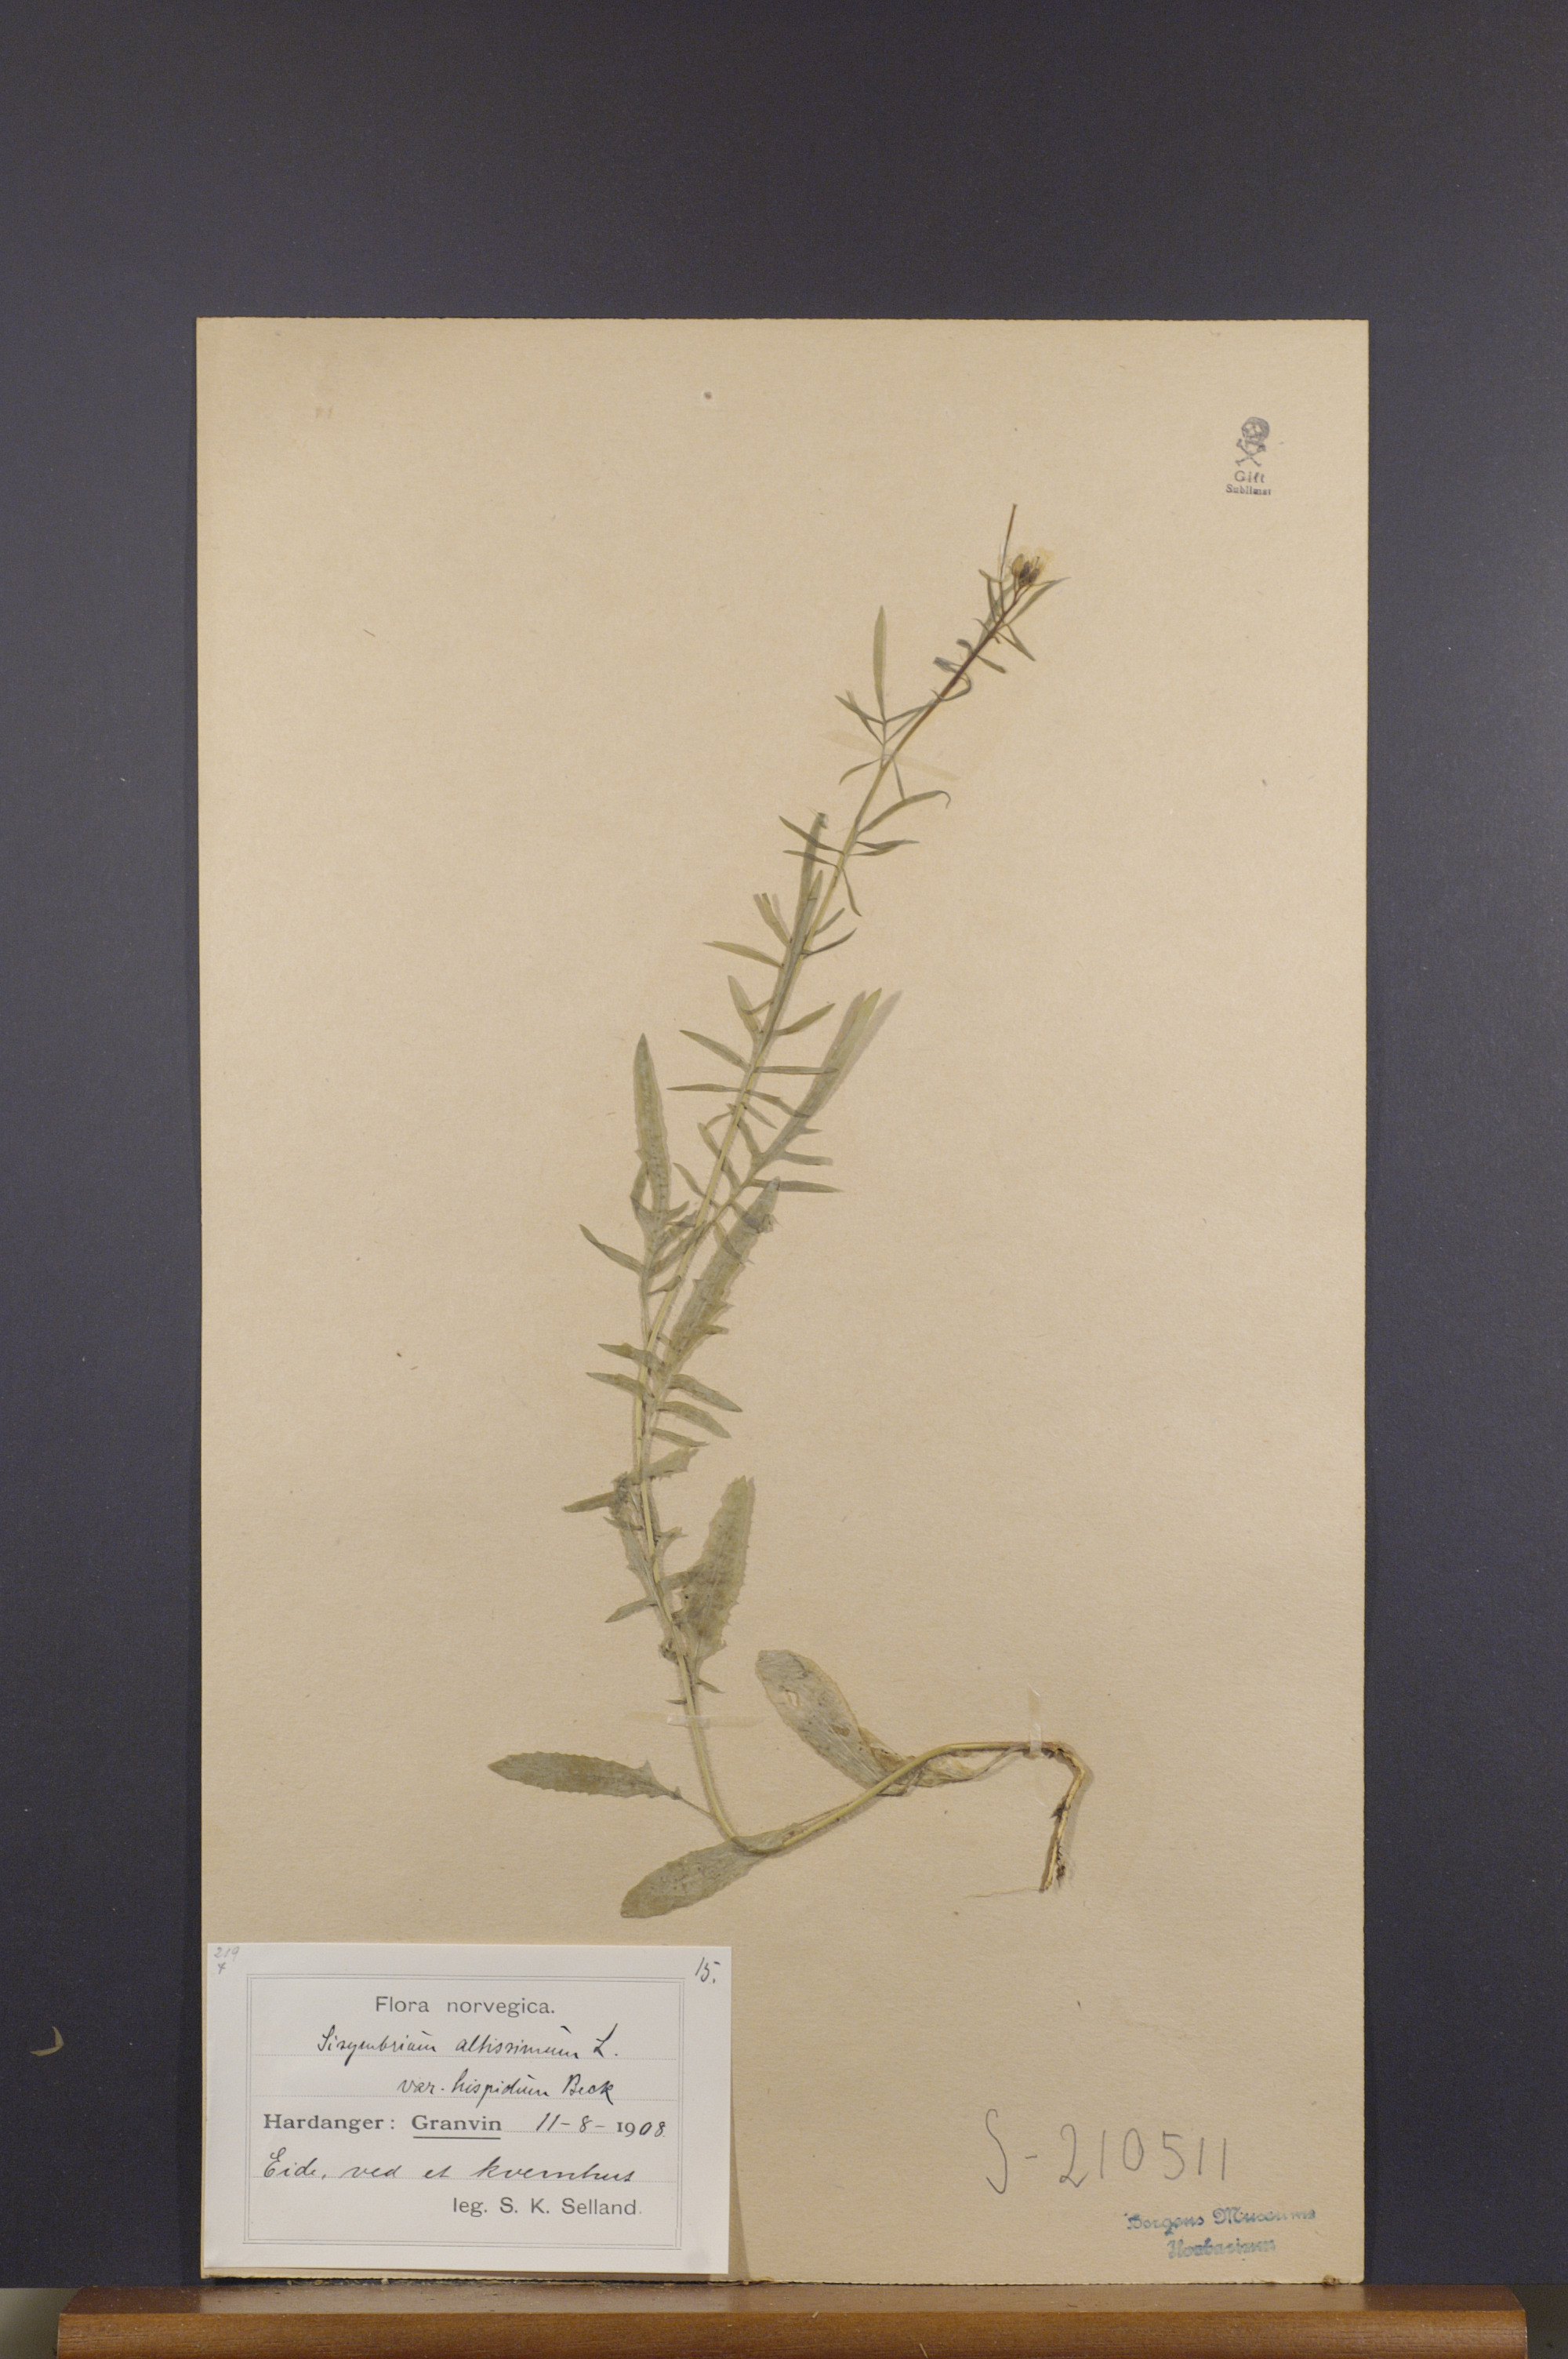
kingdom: Plantae
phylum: Tracheophyta
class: Magnoliopsida
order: Brassicales
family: Brassicaceae
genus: Sisymbrium
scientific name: Sisymbrium altissimum
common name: Tall rocket
